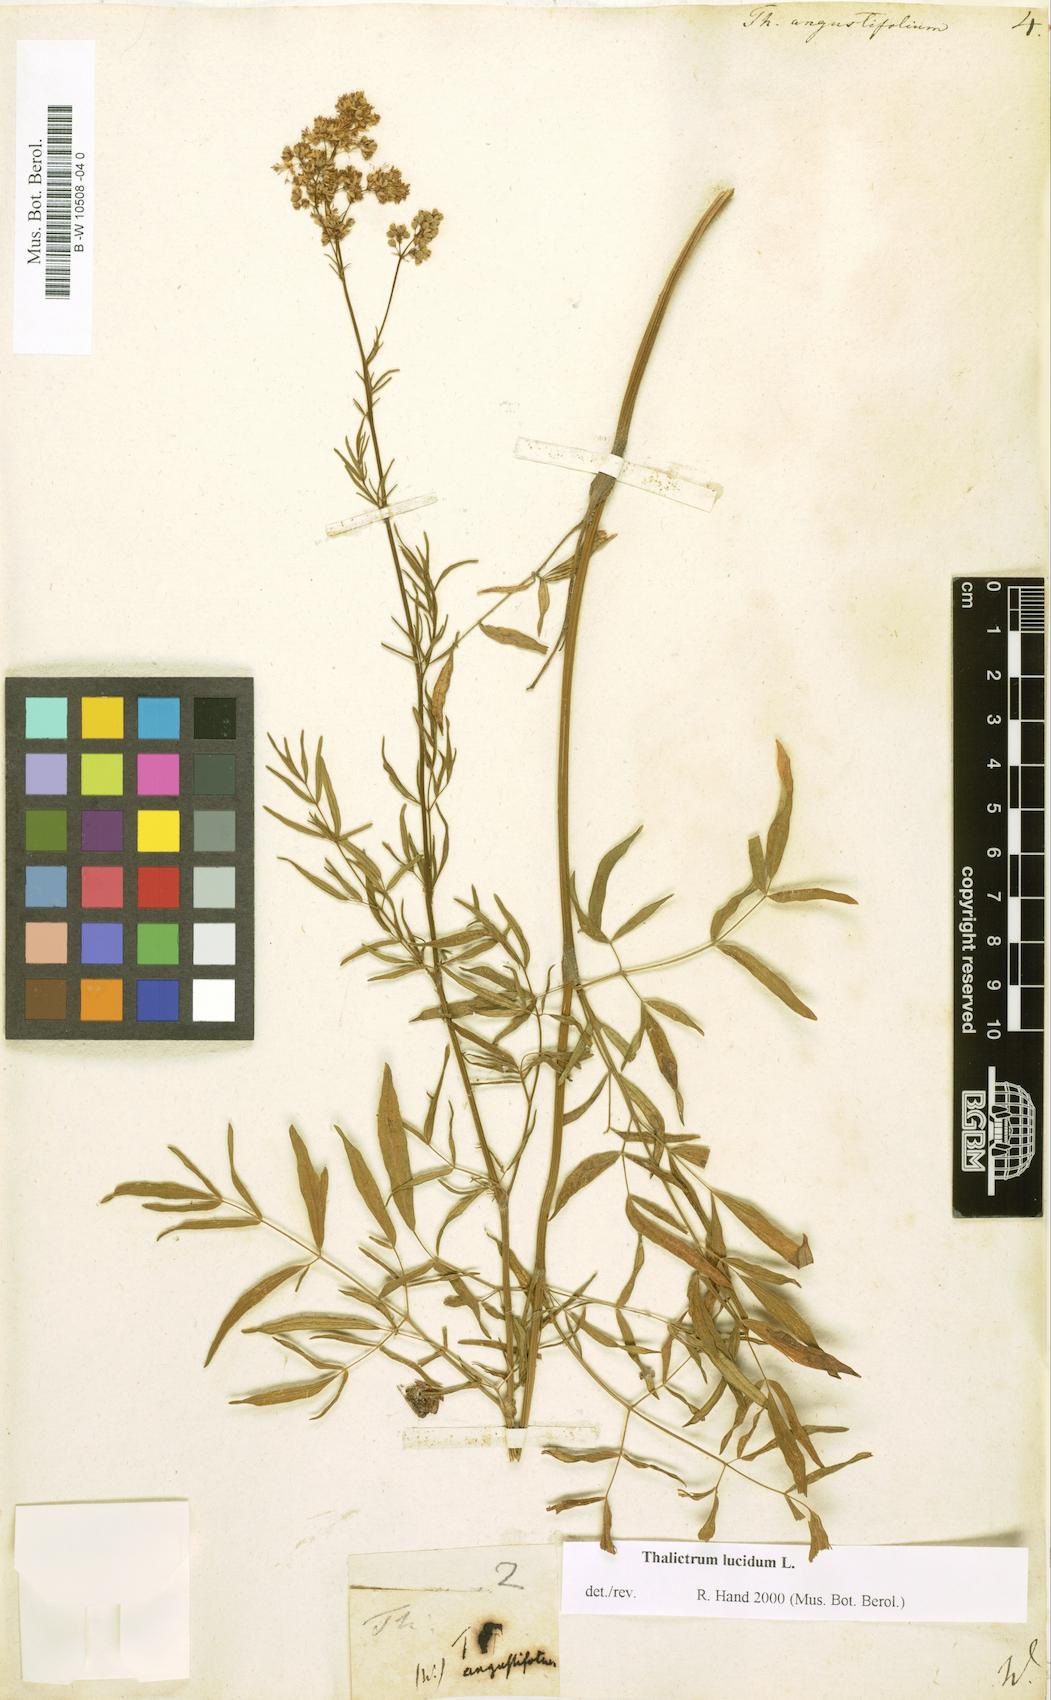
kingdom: Plantae
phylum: Tracheophyta
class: Magnoliopsida
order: Ranunculales
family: Ranunculaceae
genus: Thalictrum
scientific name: Thalictrum lucidum
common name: Shining meadow-rue
